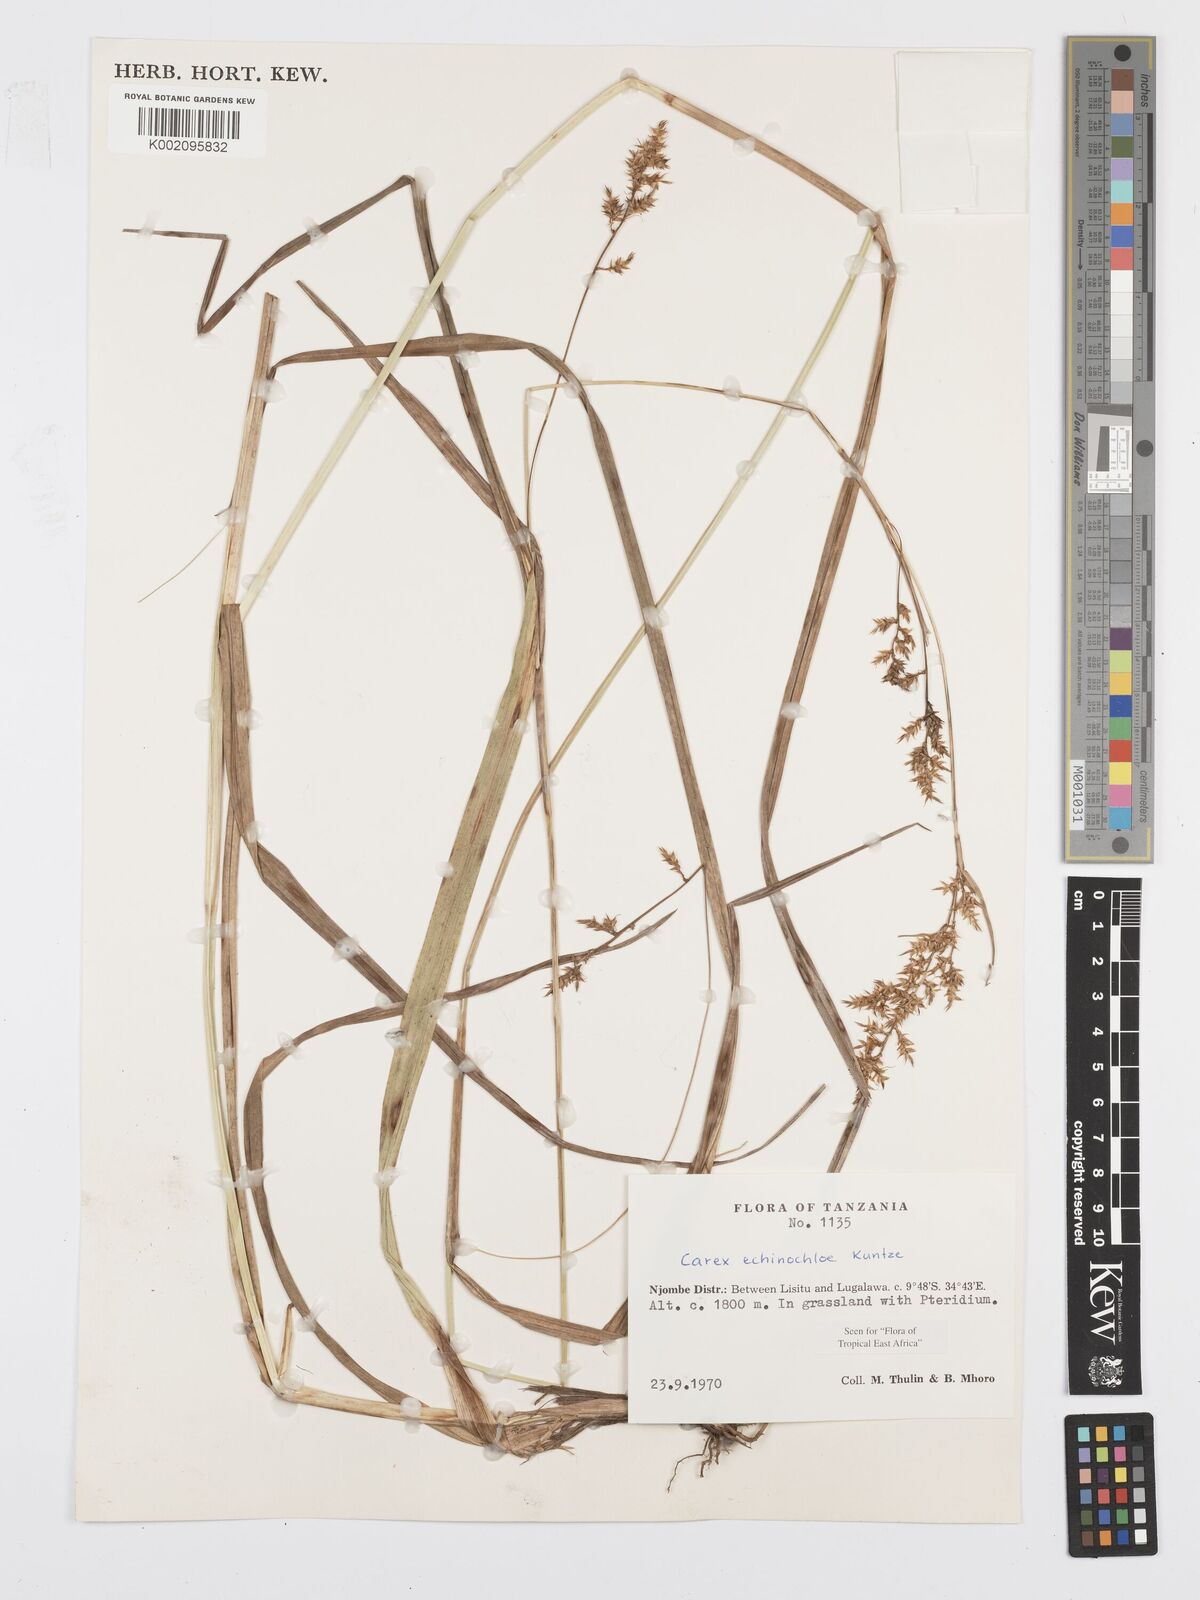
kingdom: Plantae
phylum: Tracheophyta
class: Liliopsida
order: Poales
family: Cyperaceae
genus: Carex
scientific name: Carex echinochloe
